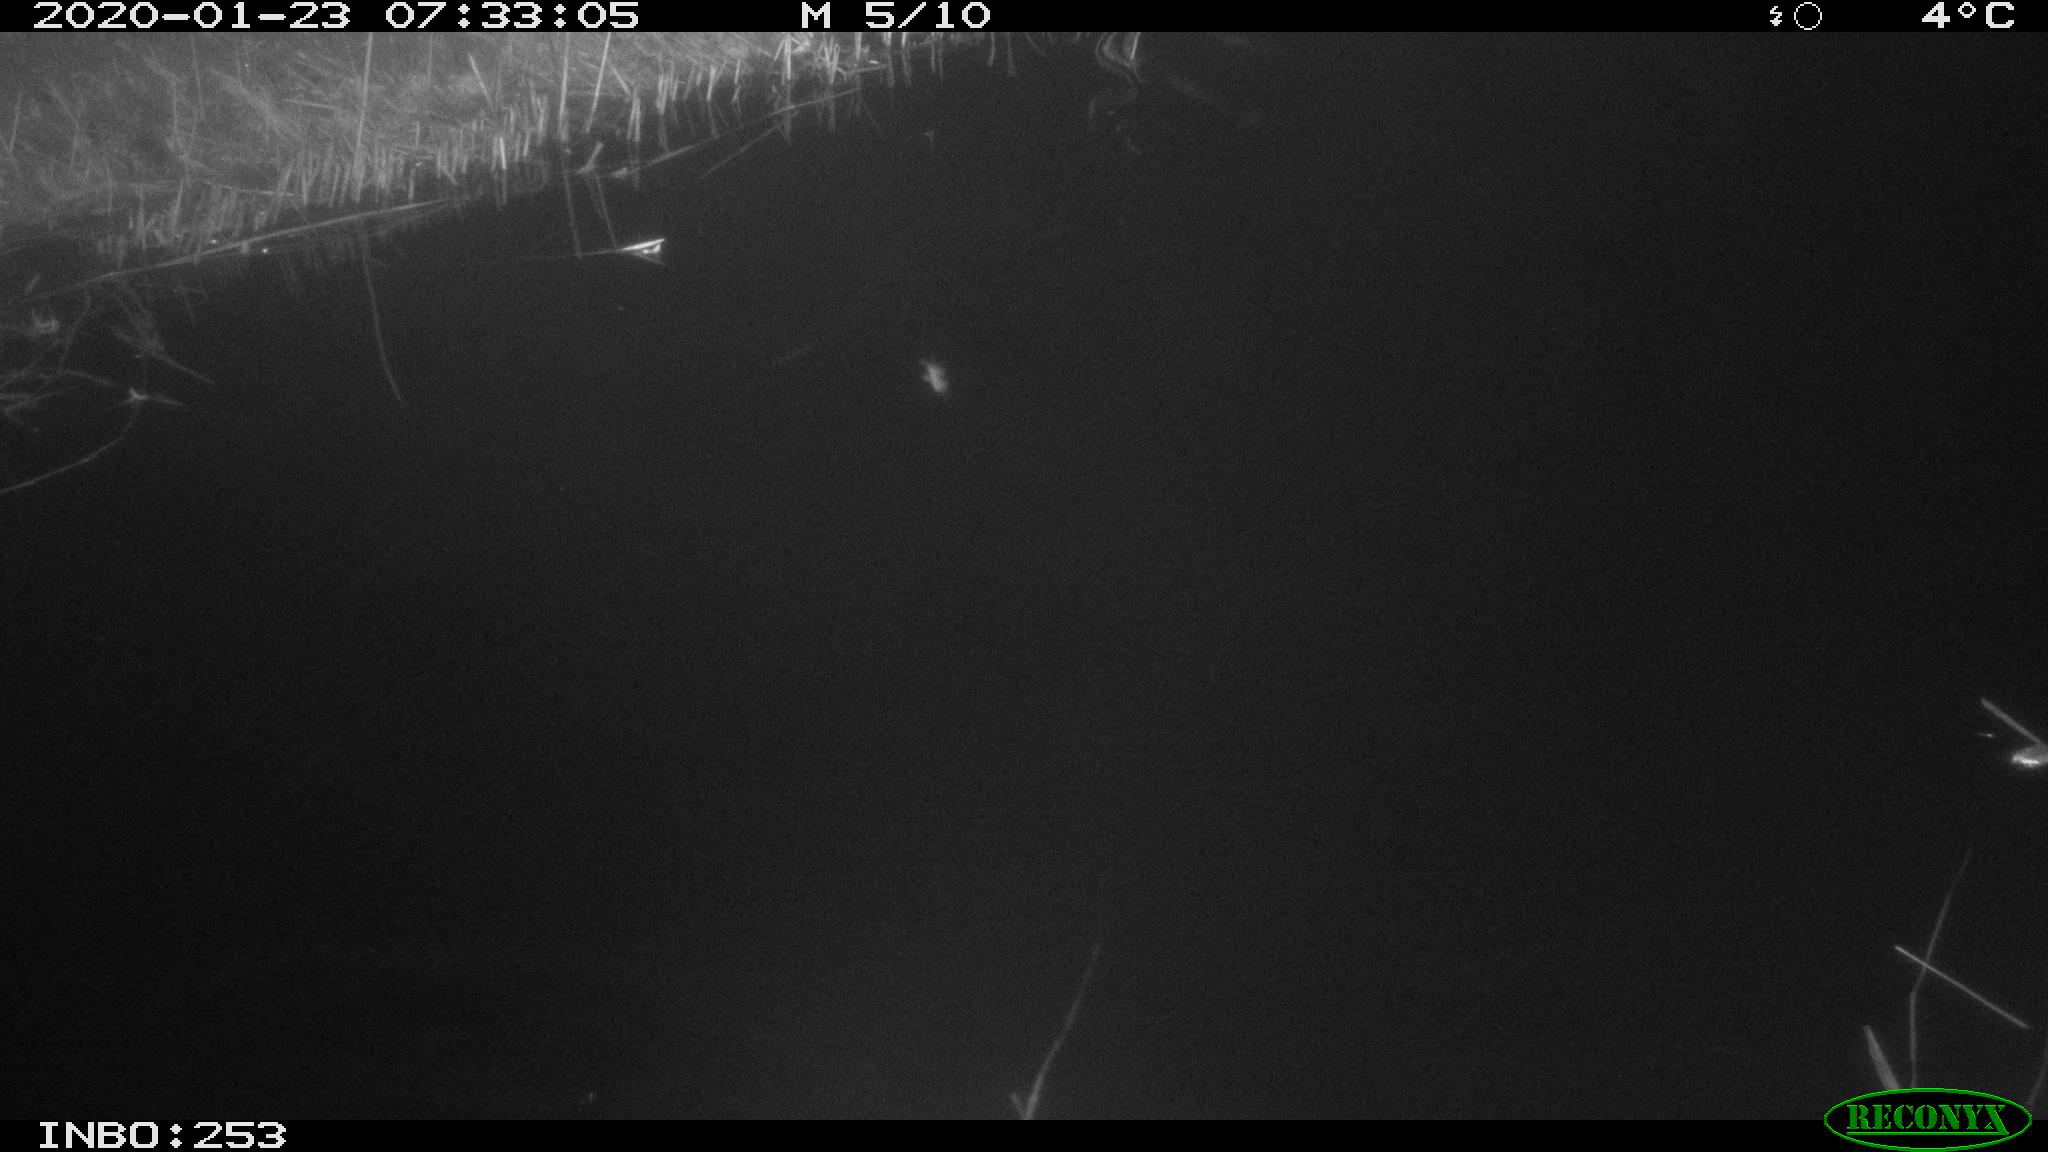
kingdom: Animalia
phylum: Chordata
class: Mammalia
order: Rodentia
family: Cricetidae
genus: Ondatra
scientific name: Ondatra zibethicus
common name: Muskrat
